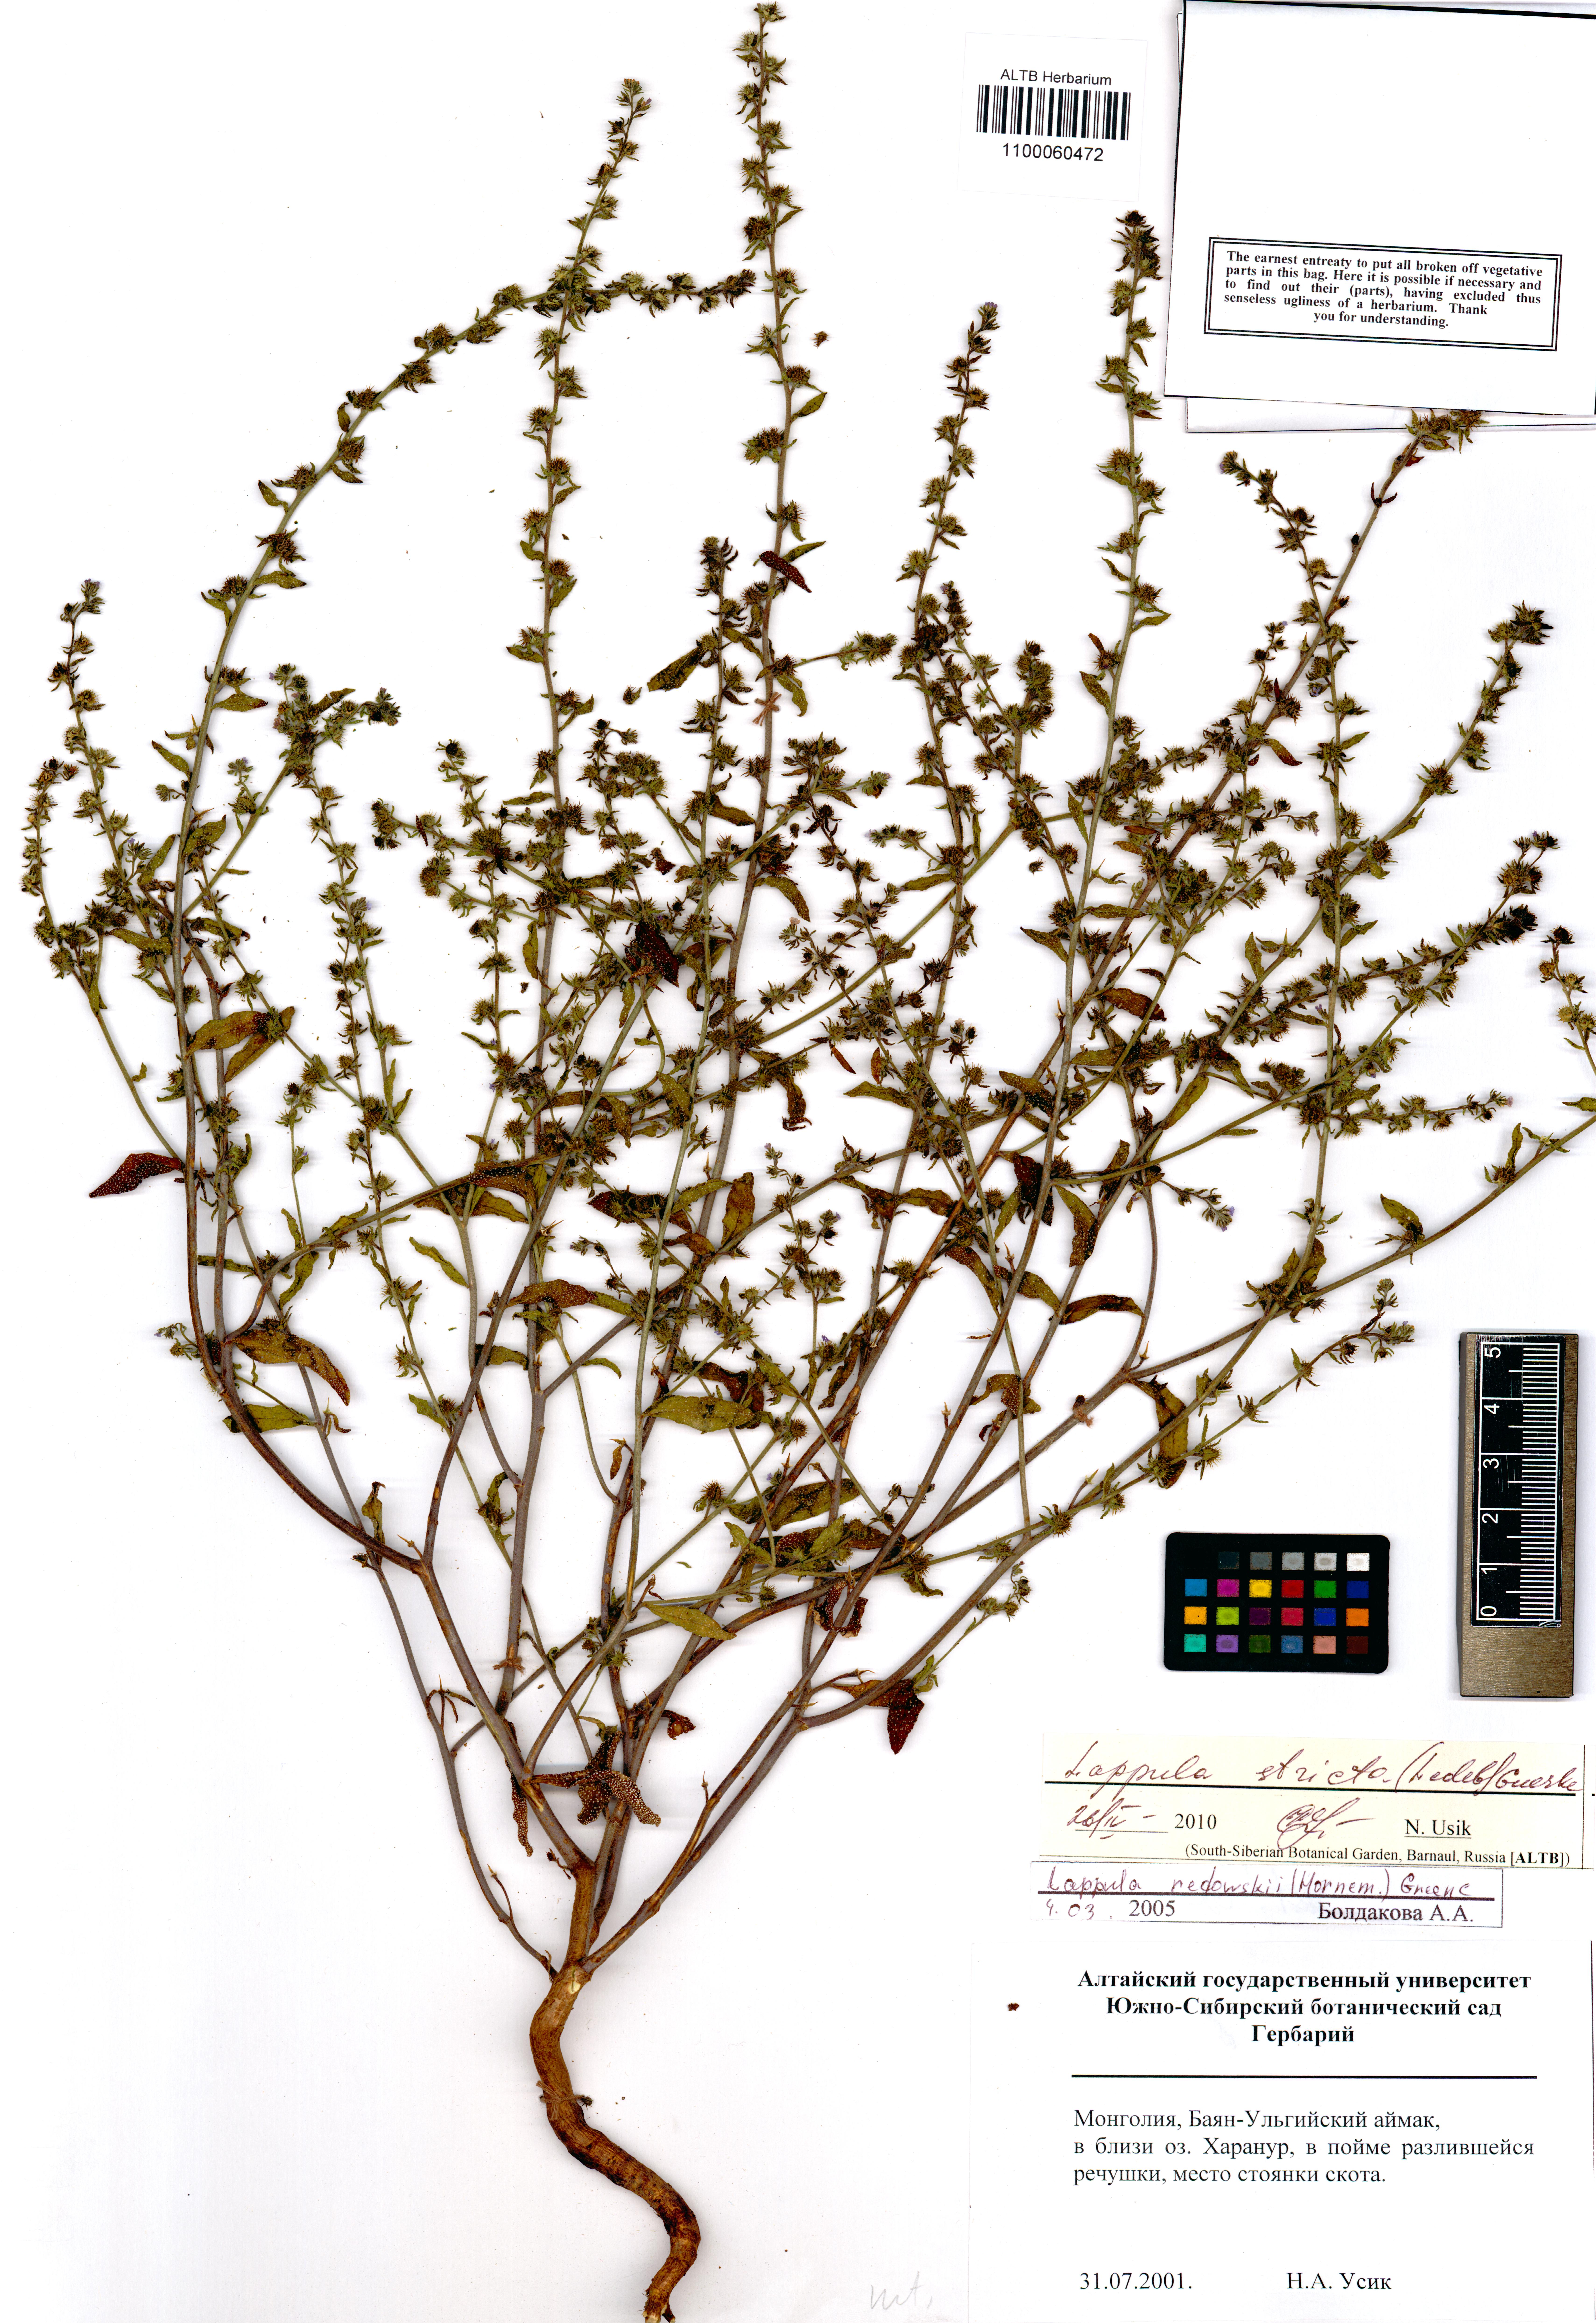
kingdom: Plantae
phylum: Tracheophyta
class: Magnoliopsida
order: Boraginales
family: Boraginaceae
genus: Lappula
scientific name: Lappula stricta
